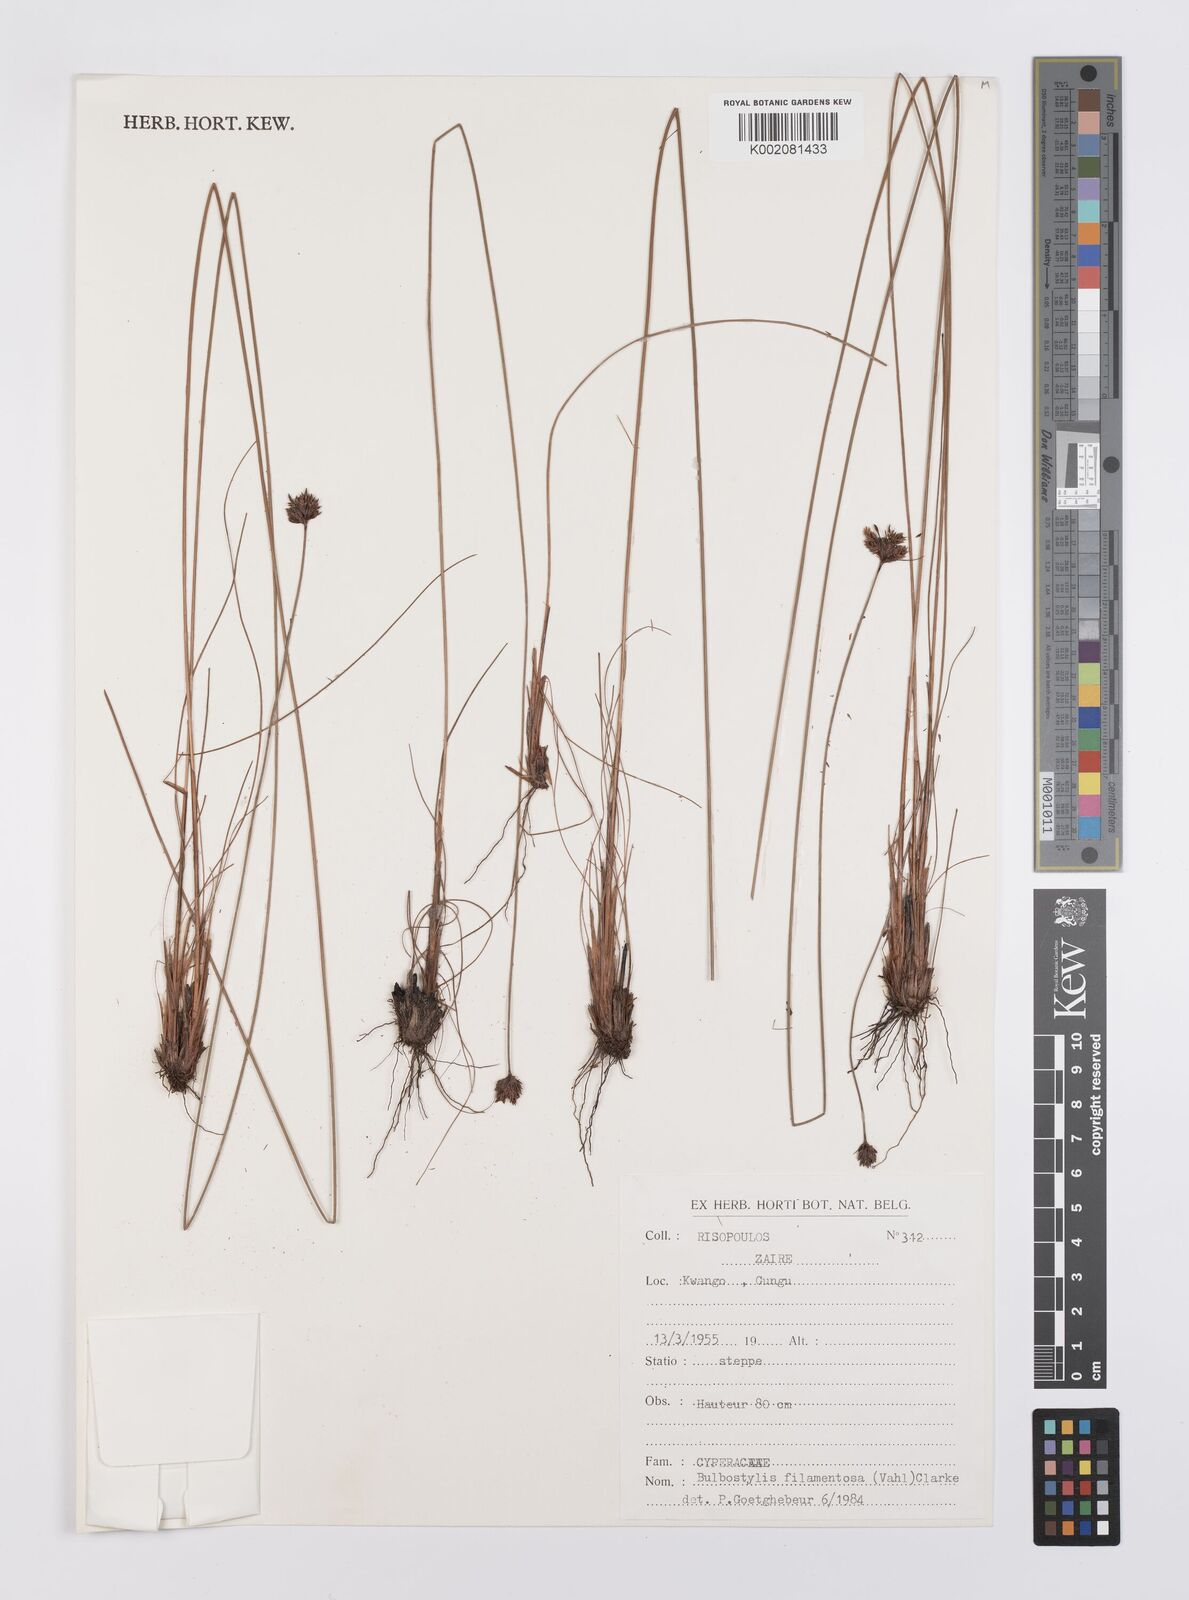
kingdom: Plantae
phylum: Tracheophyta
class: Liliopsida
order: Poales
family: Cyperaceae
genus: Bulbostylis
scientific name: Bulbostylis filamentosa
